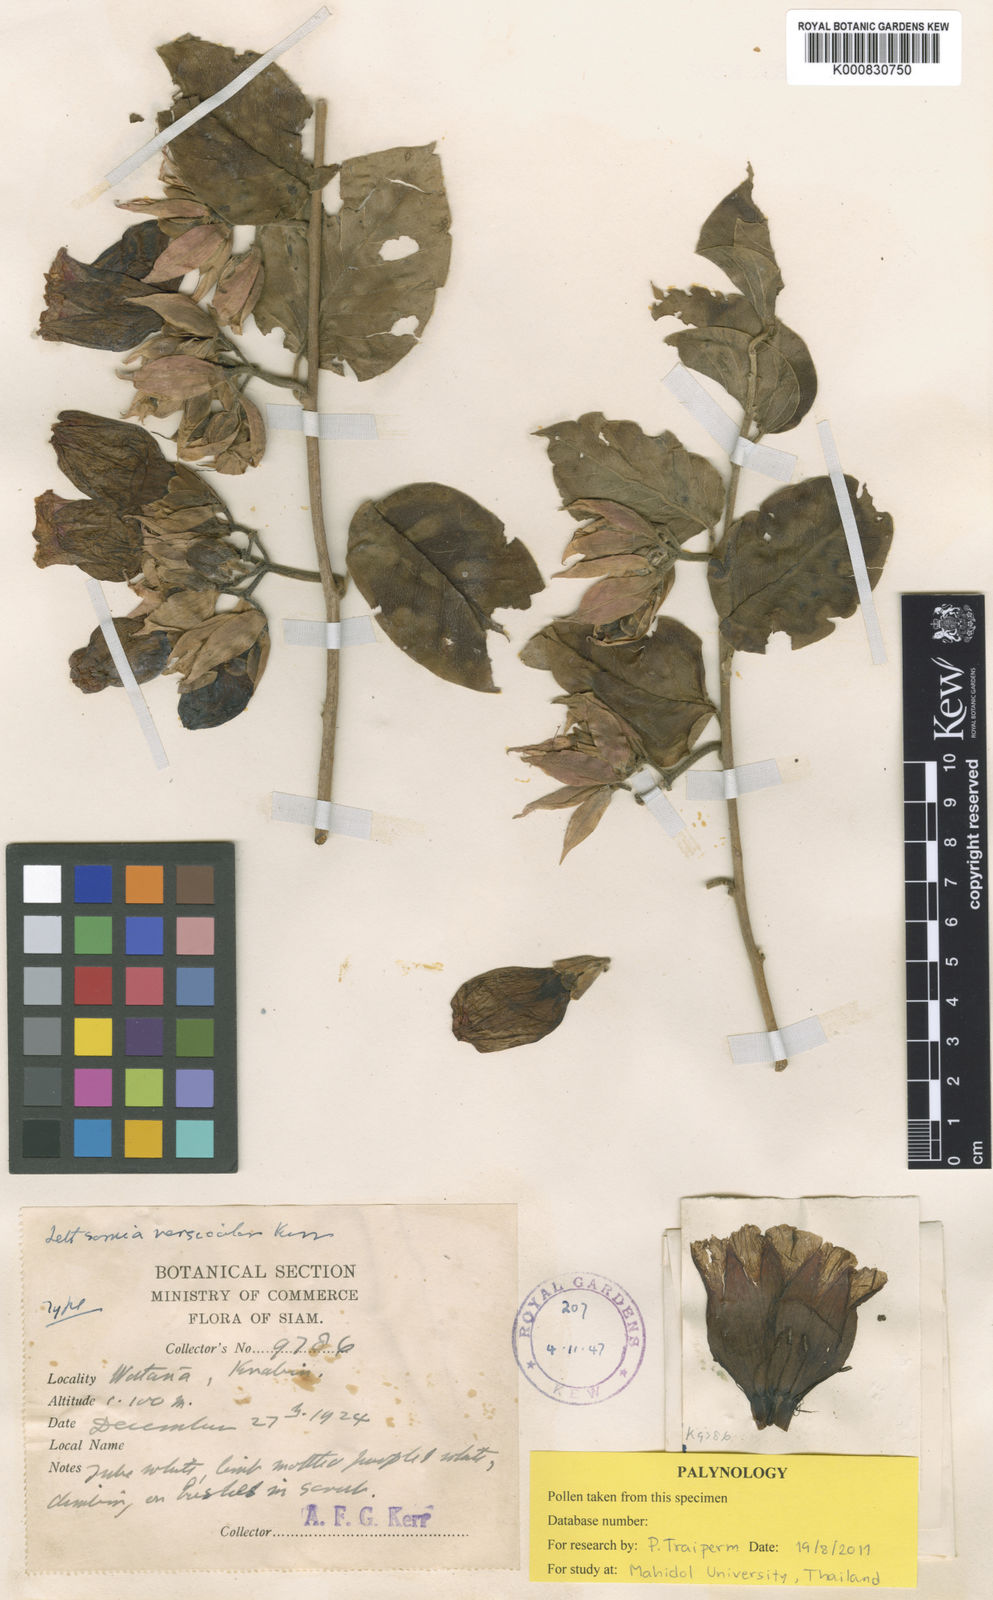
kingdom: Plantae
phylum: Tracheophyta
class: Magnoliopsida
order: Solanales
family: Convolvulaceae
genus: Argyreia
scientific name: Argyreia versicolor
